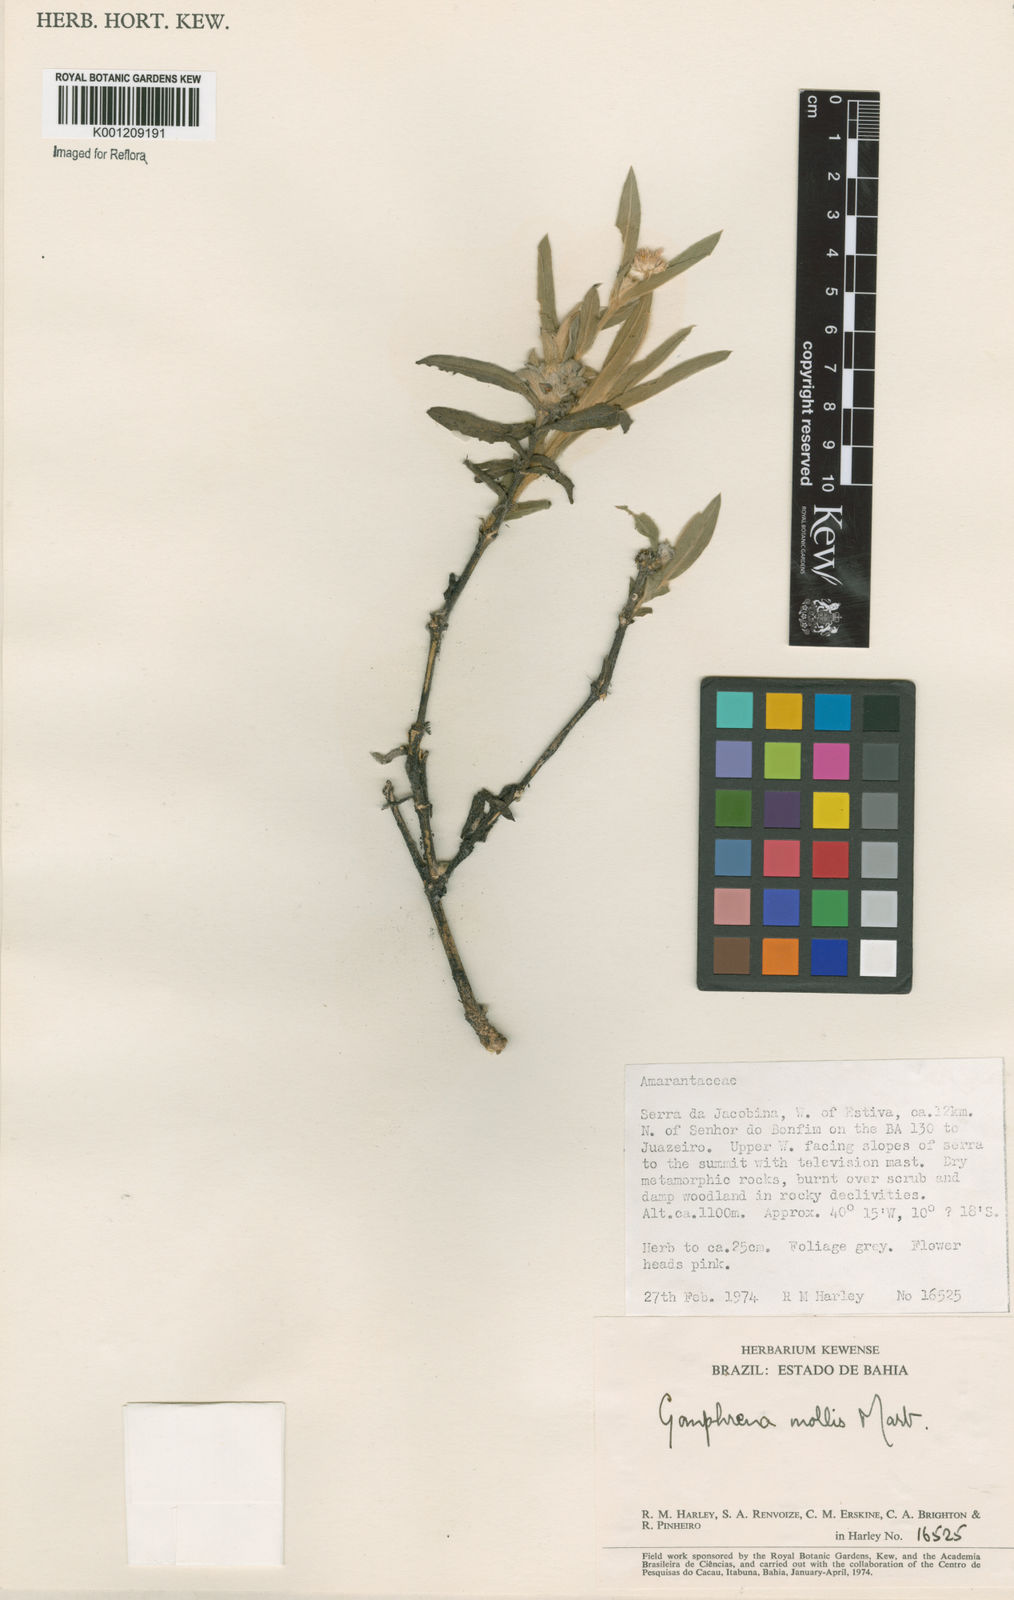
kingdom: Plantae
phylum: Tracheophyta
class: Magnoliopsida
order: Caryophyllales
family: Amaranthaceae
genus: Gomphrena
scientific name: Gomphrena mollis
